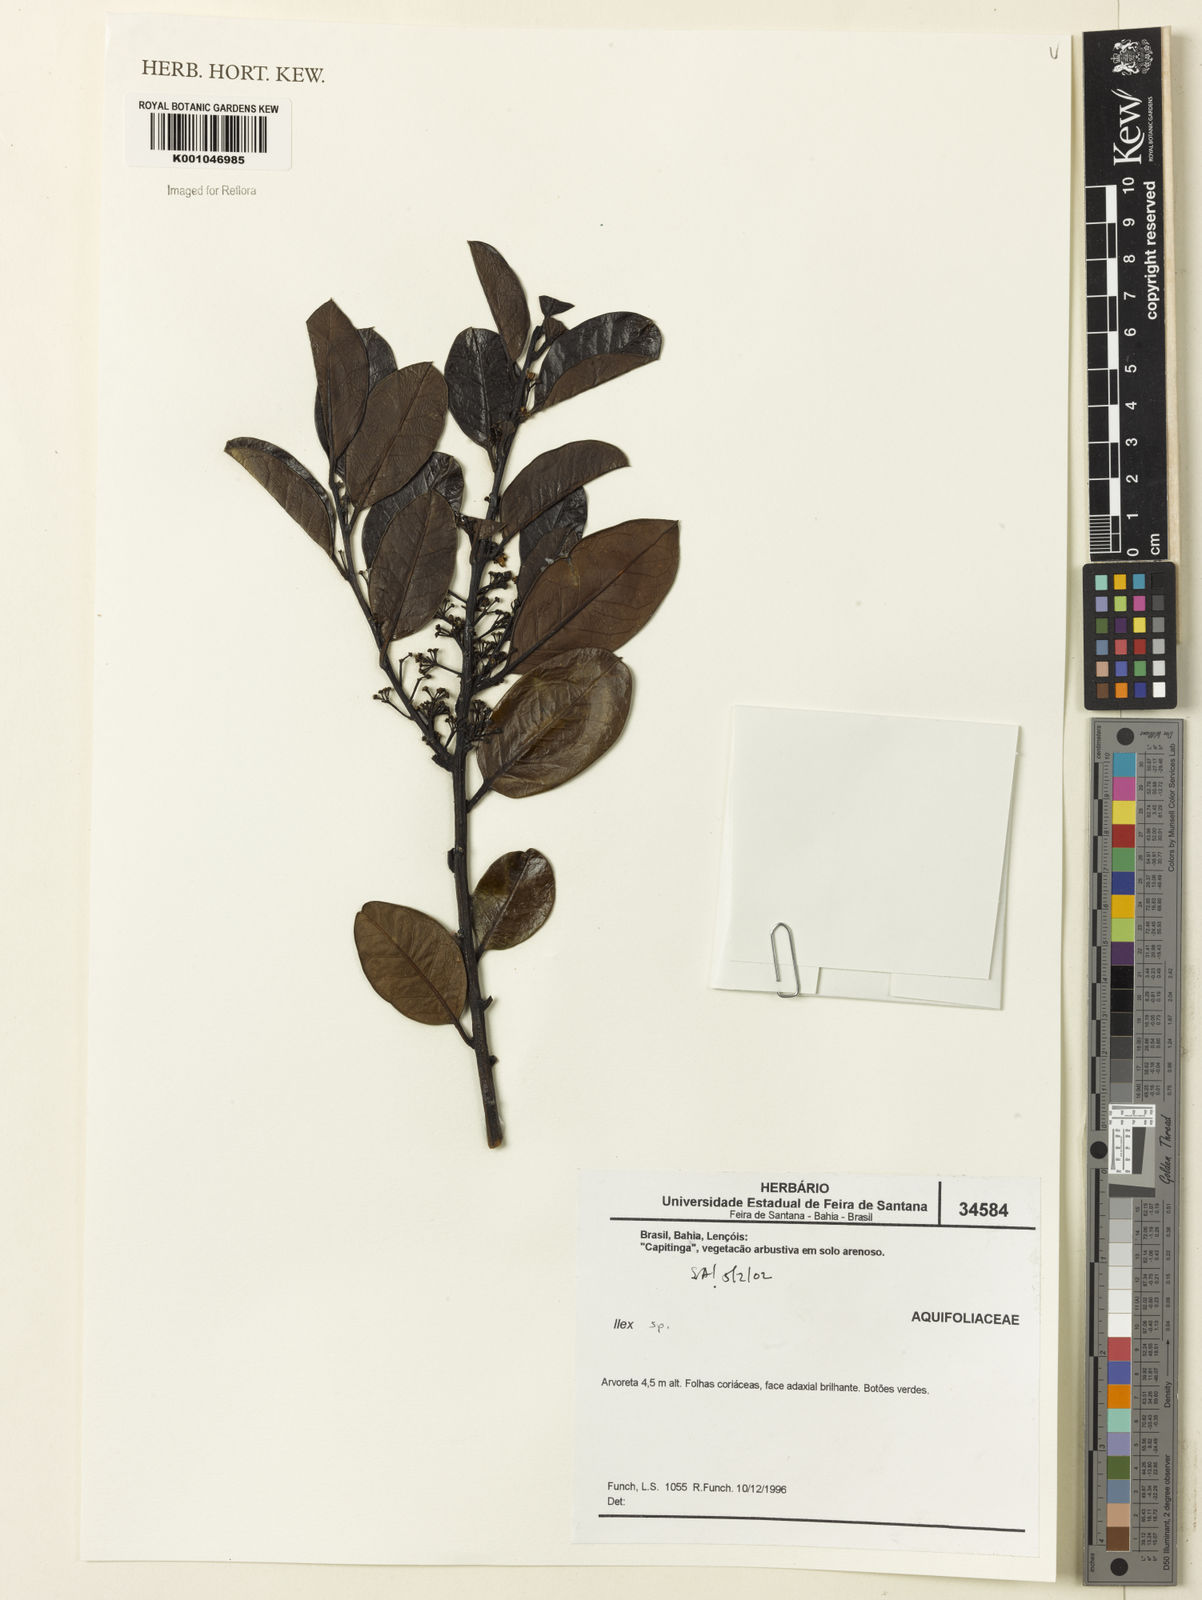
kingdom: Plantae
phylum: Tracheophyta
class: Magnoliopsida
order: Aquifoliales
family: Aquifoliaceae
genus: Ilex
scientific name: Ilex
